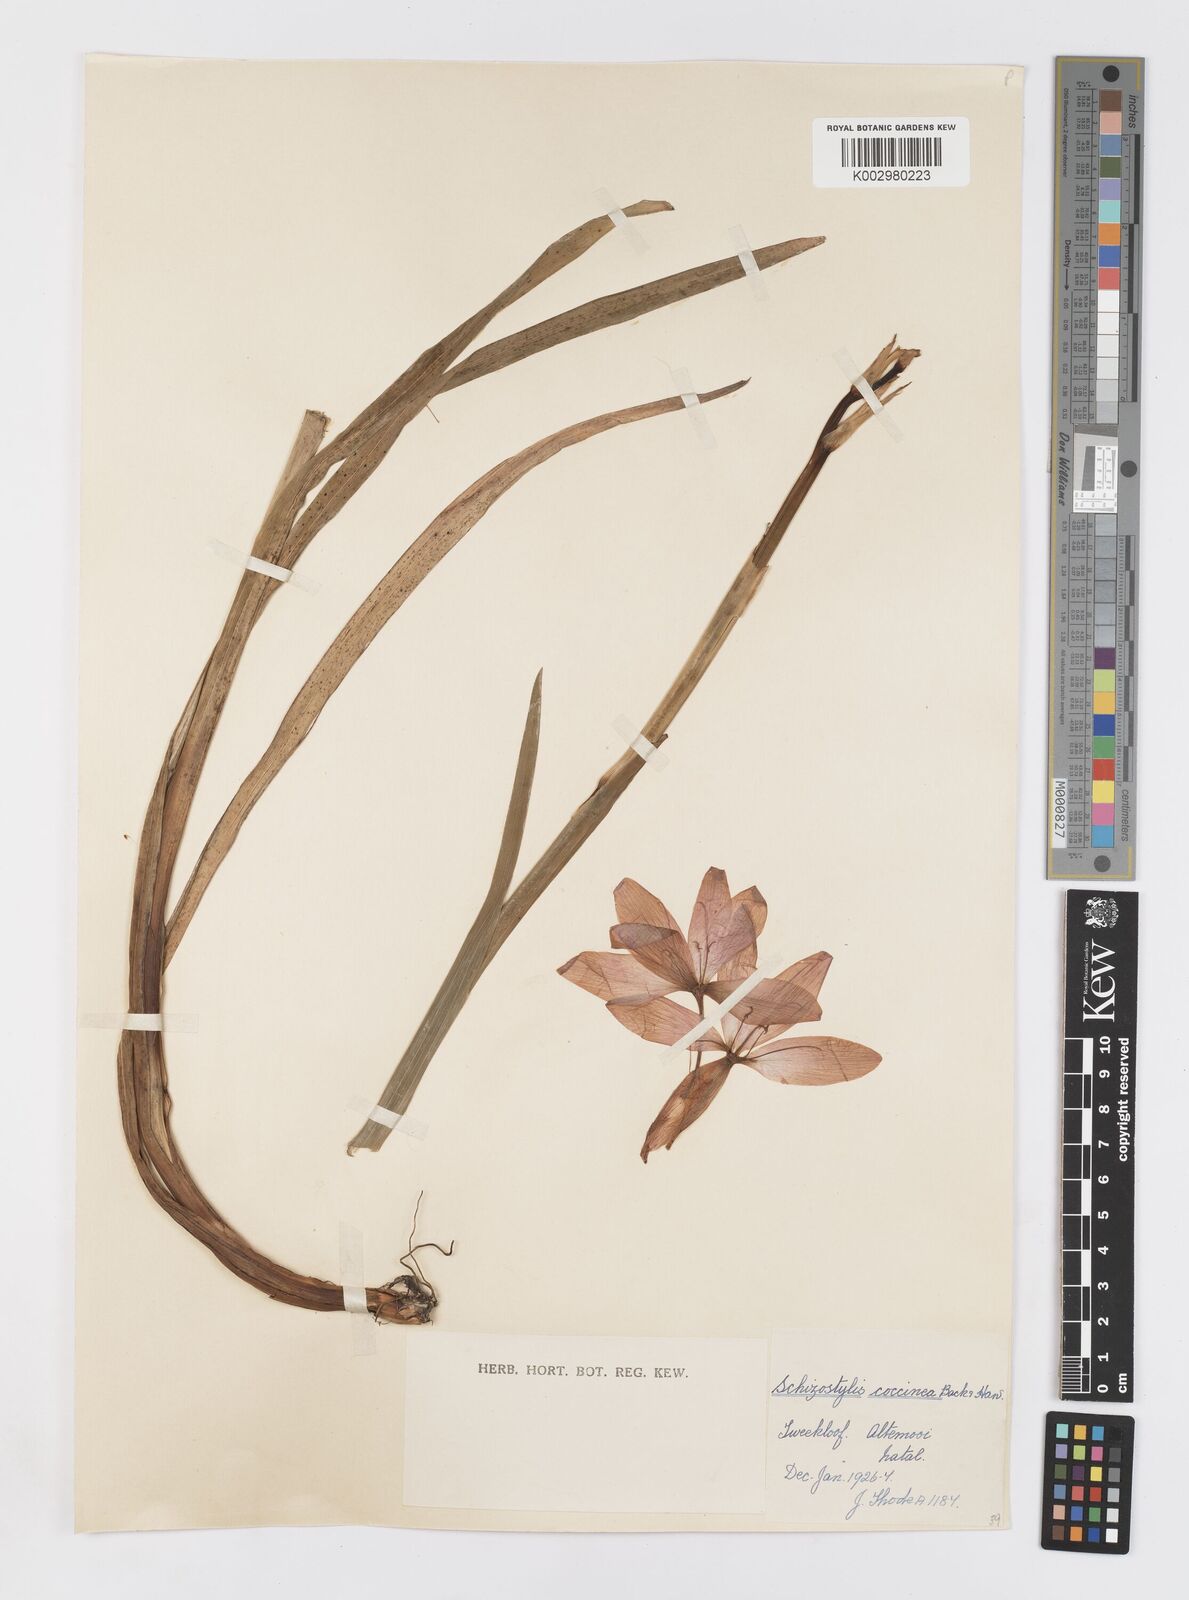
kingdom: Plantae
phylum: Tracheophyta
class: Liliopsida
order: Asparagales
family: Iridaceae
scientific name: Iridaceae
